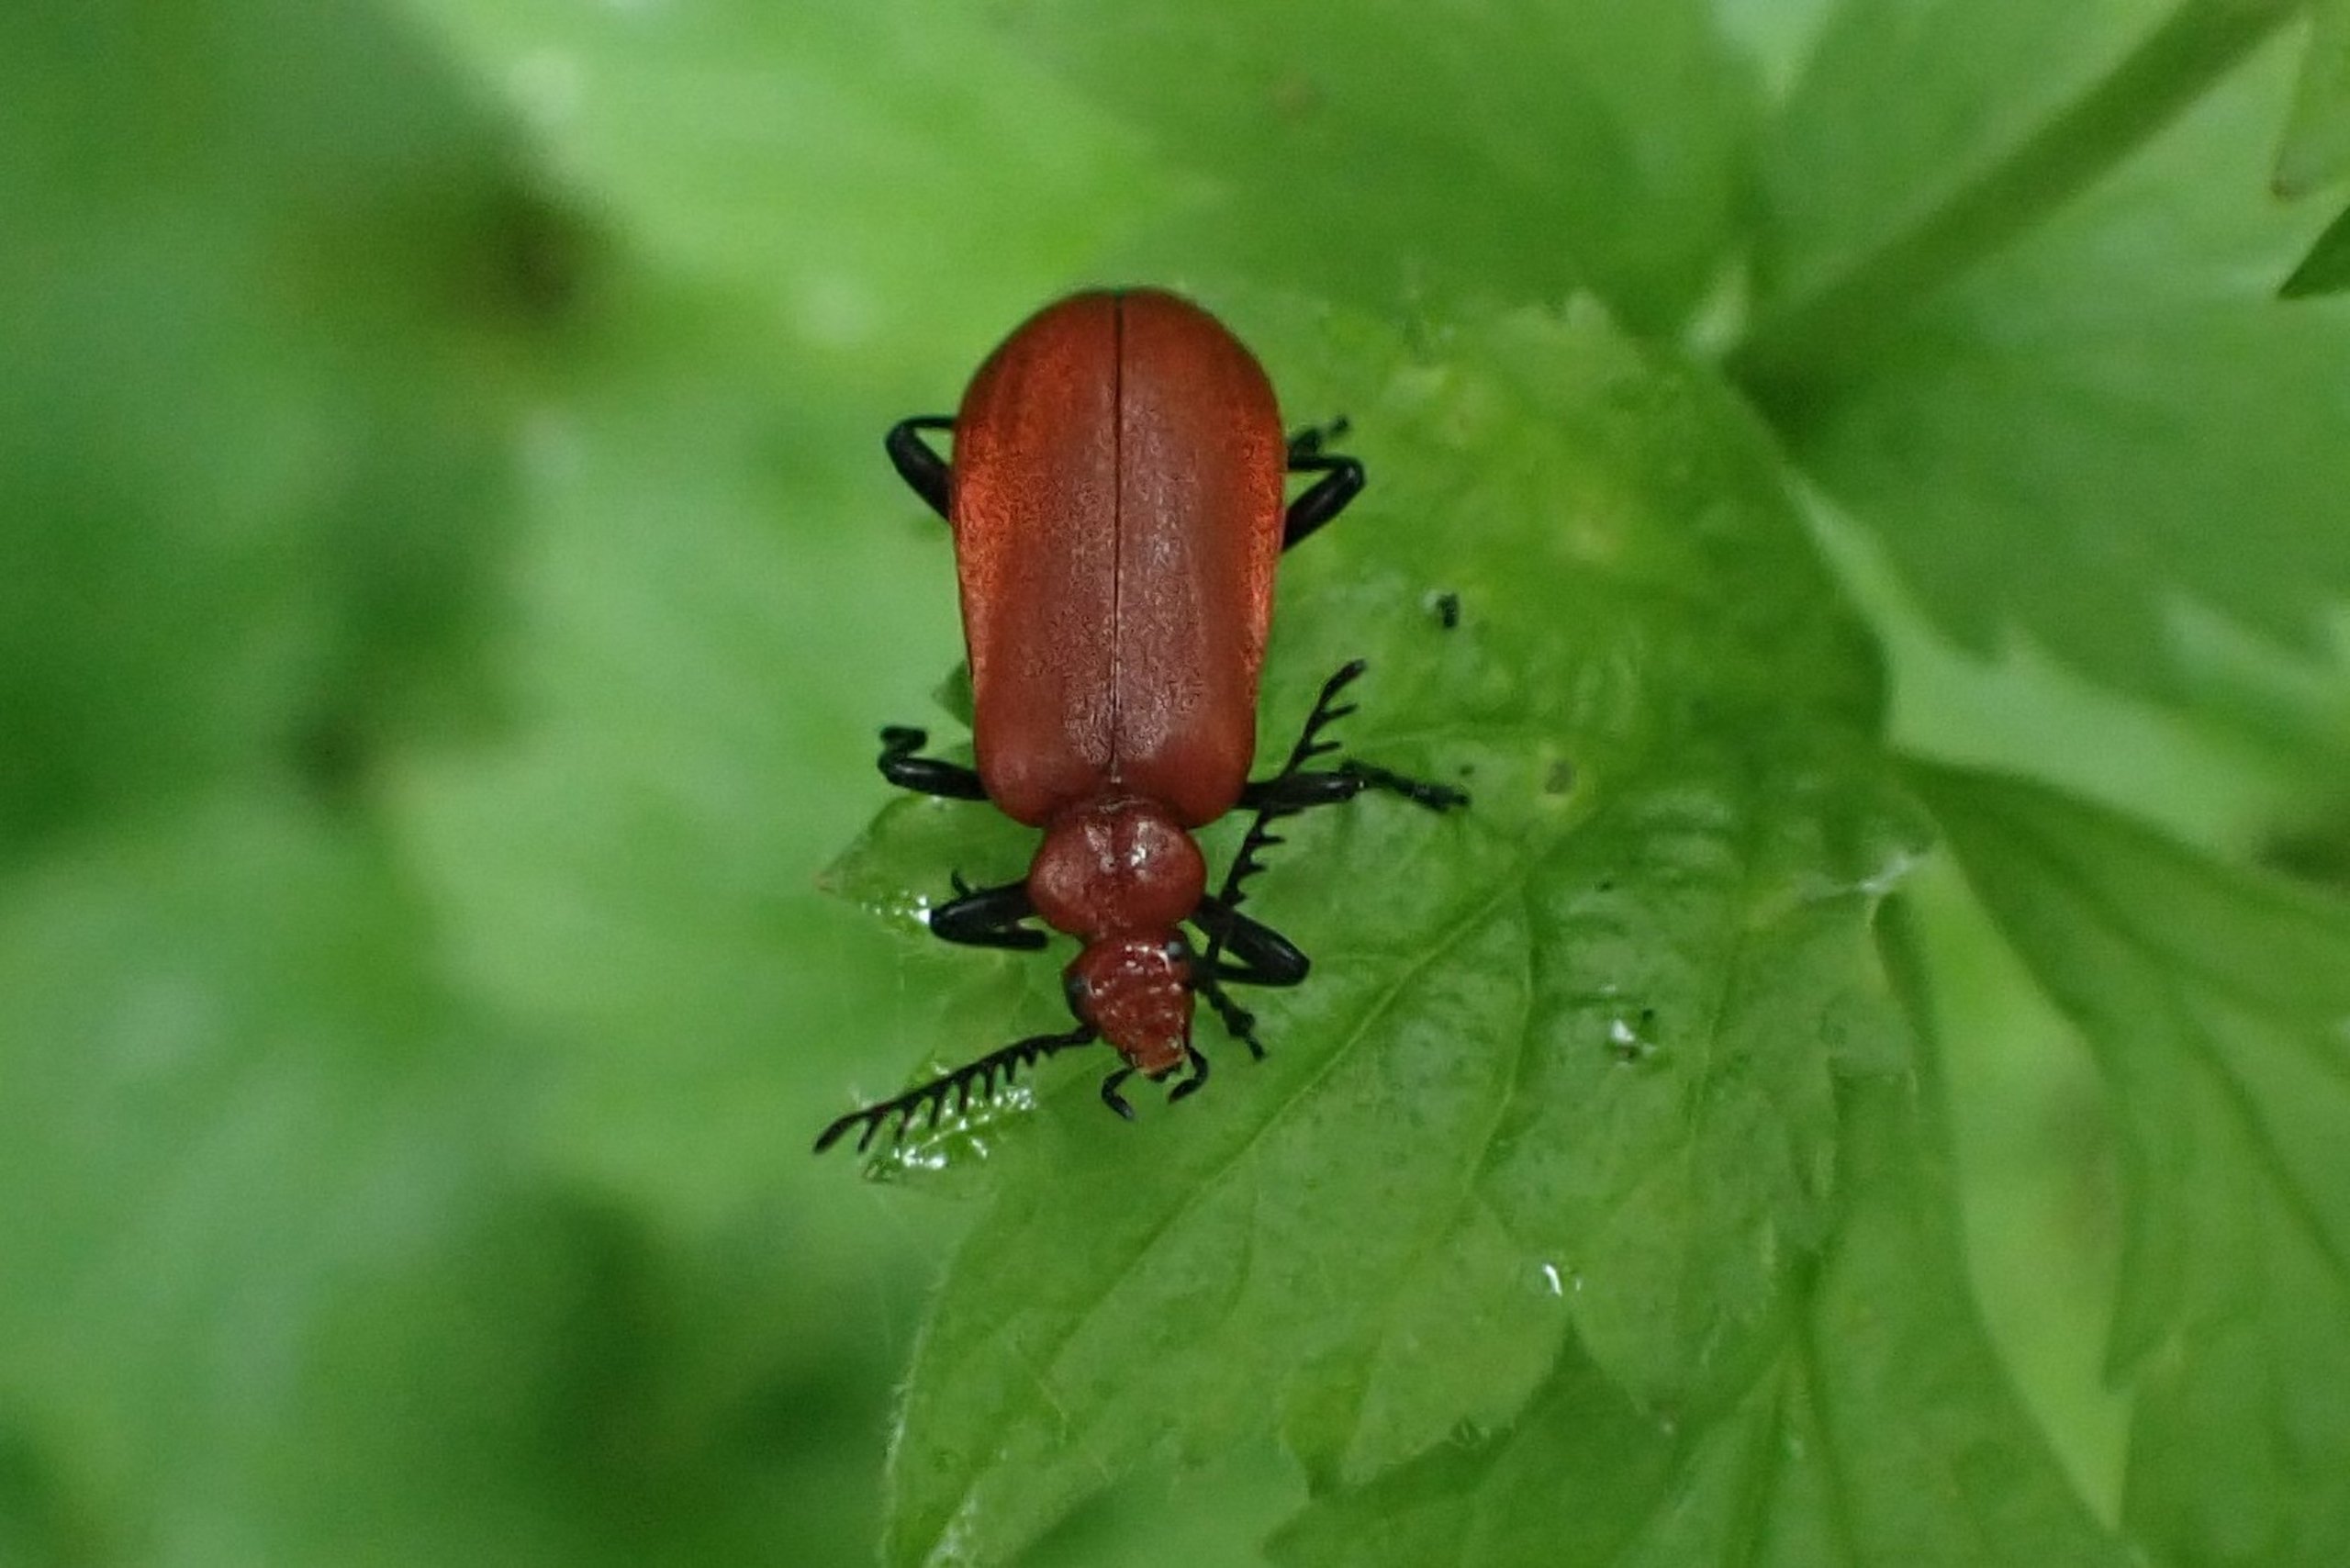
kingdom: Animalia
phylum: Arthropoda
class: Insecta
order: Coleoptera
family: Pyrochroidae
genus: Pyrochroa
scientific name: Pyrochroa serraticornis
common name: Rødhovedet kardinalbille
